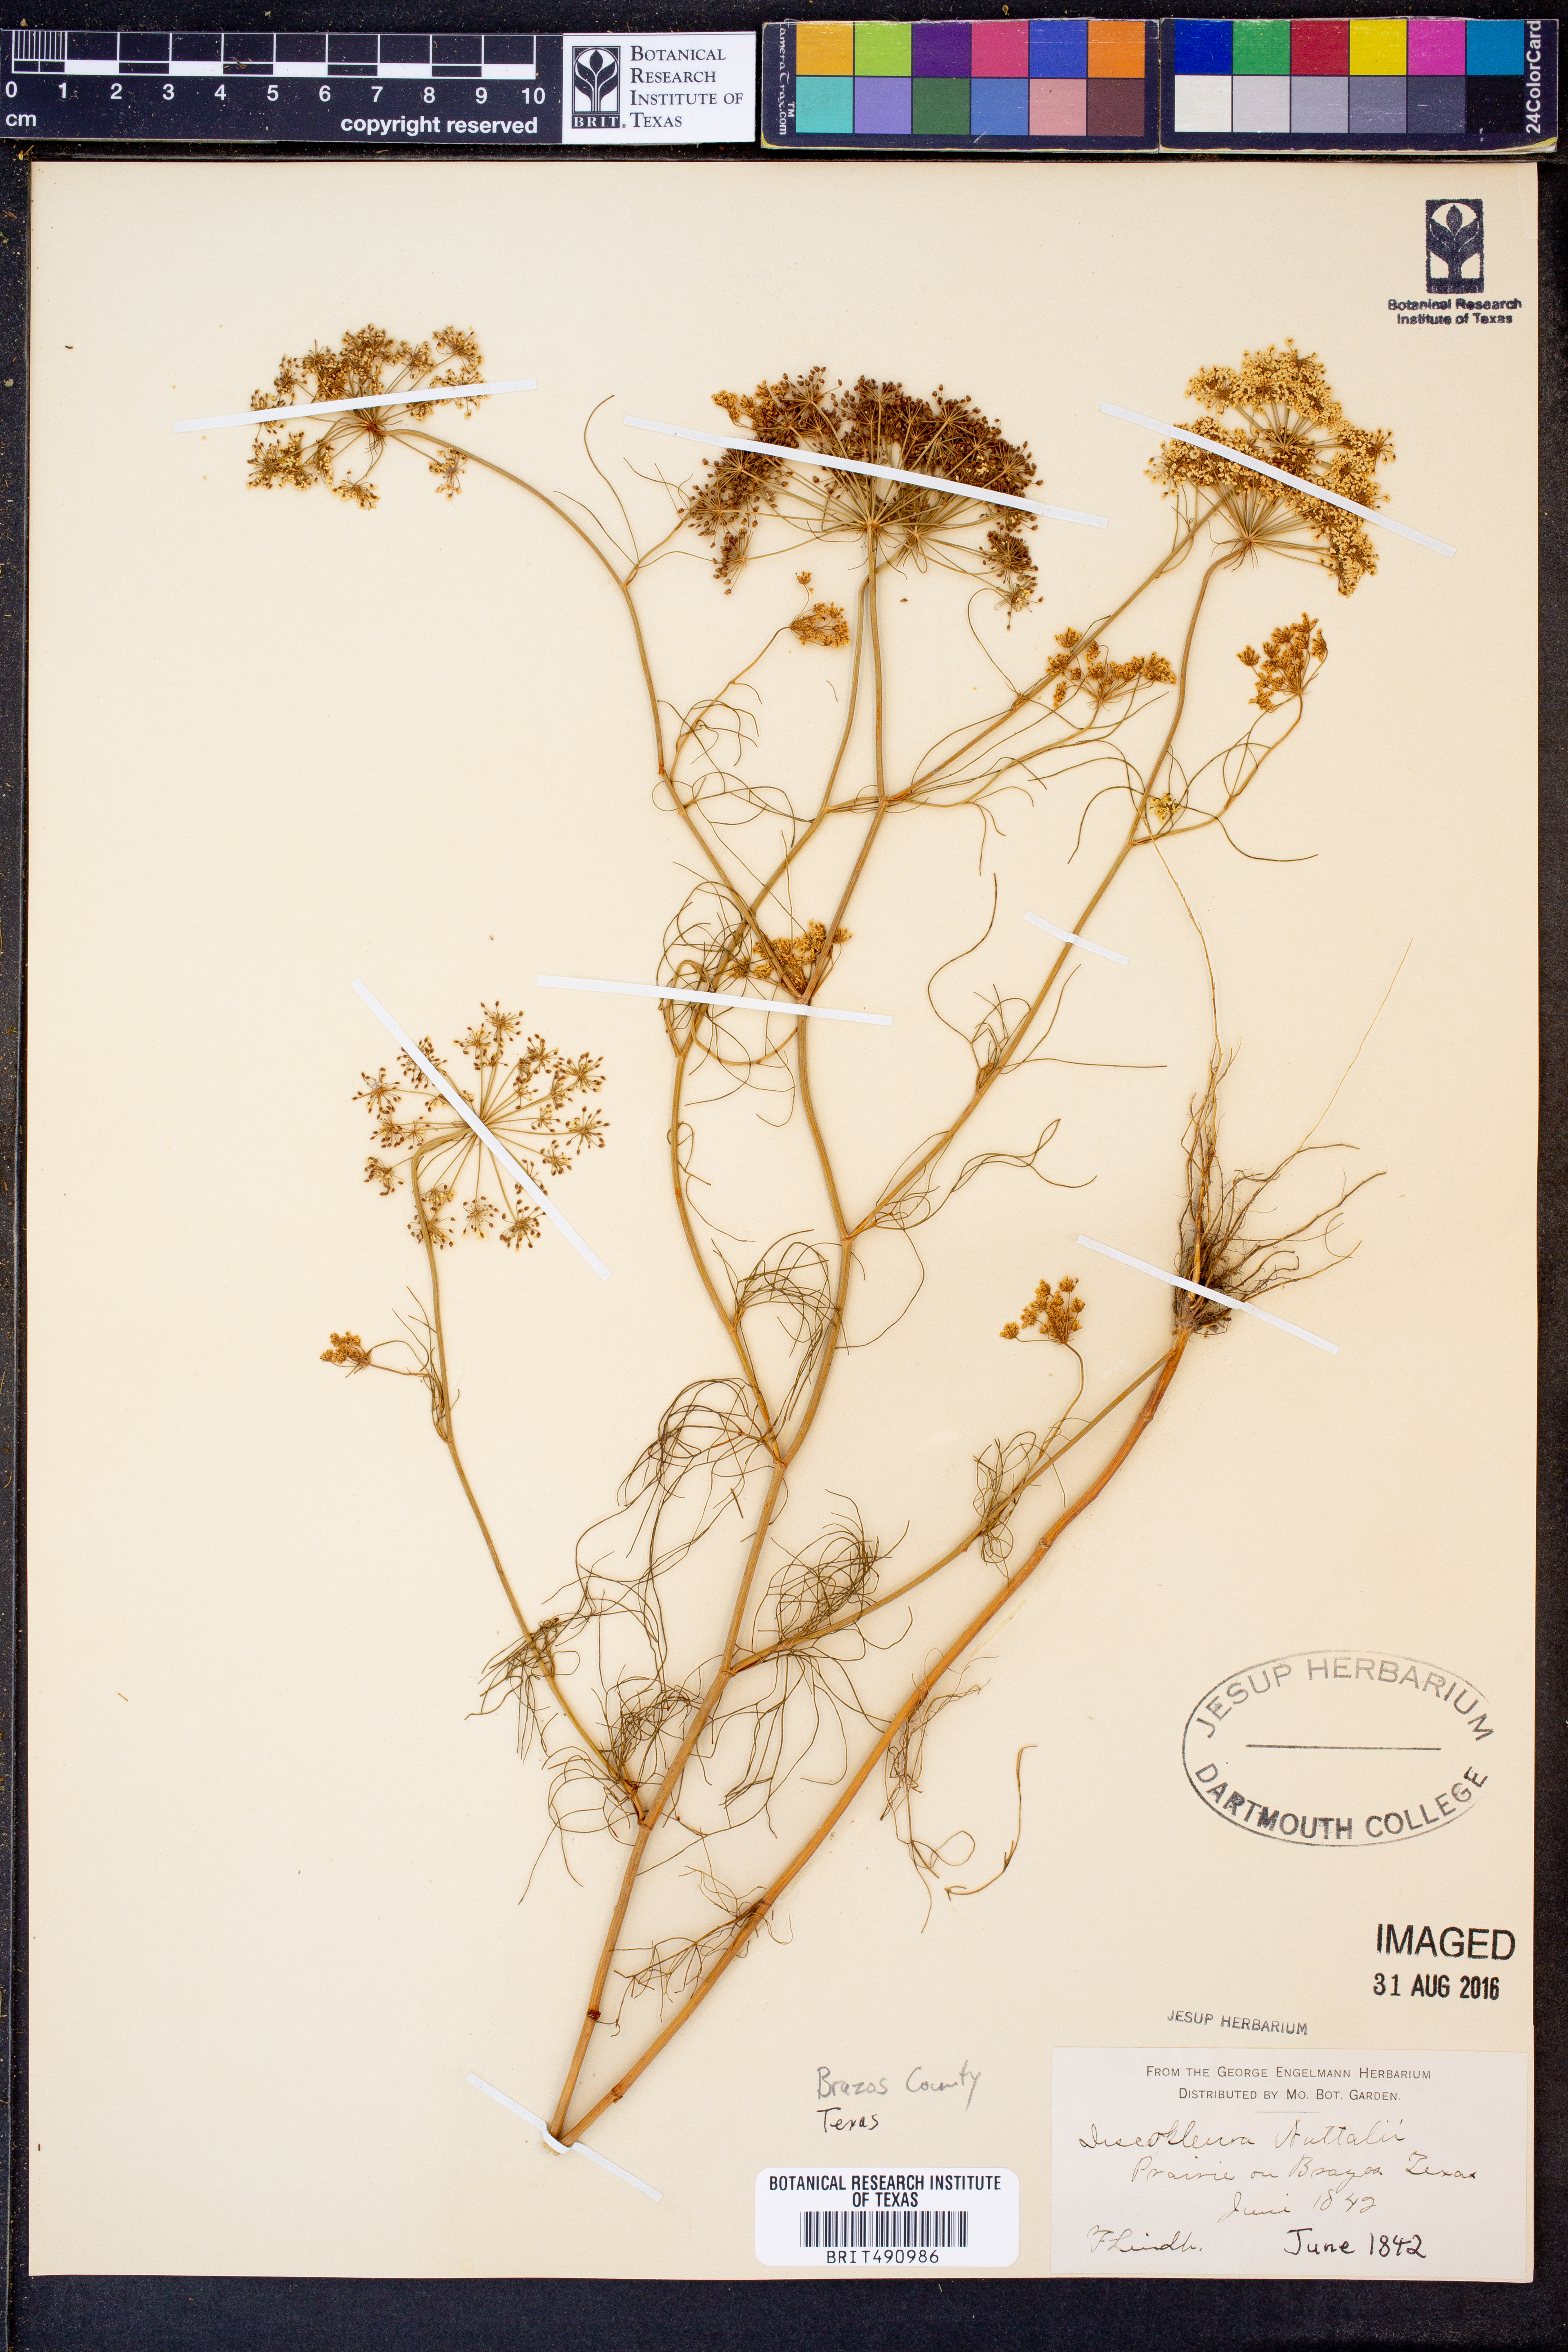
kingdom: Plantae
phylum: Tracheophyta
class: Magnoliopsida
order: Apiales
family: Apiaceae
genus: Ptilimnium
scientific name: Ptilimnium nuttallii
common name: Ozark bishop's-weed
